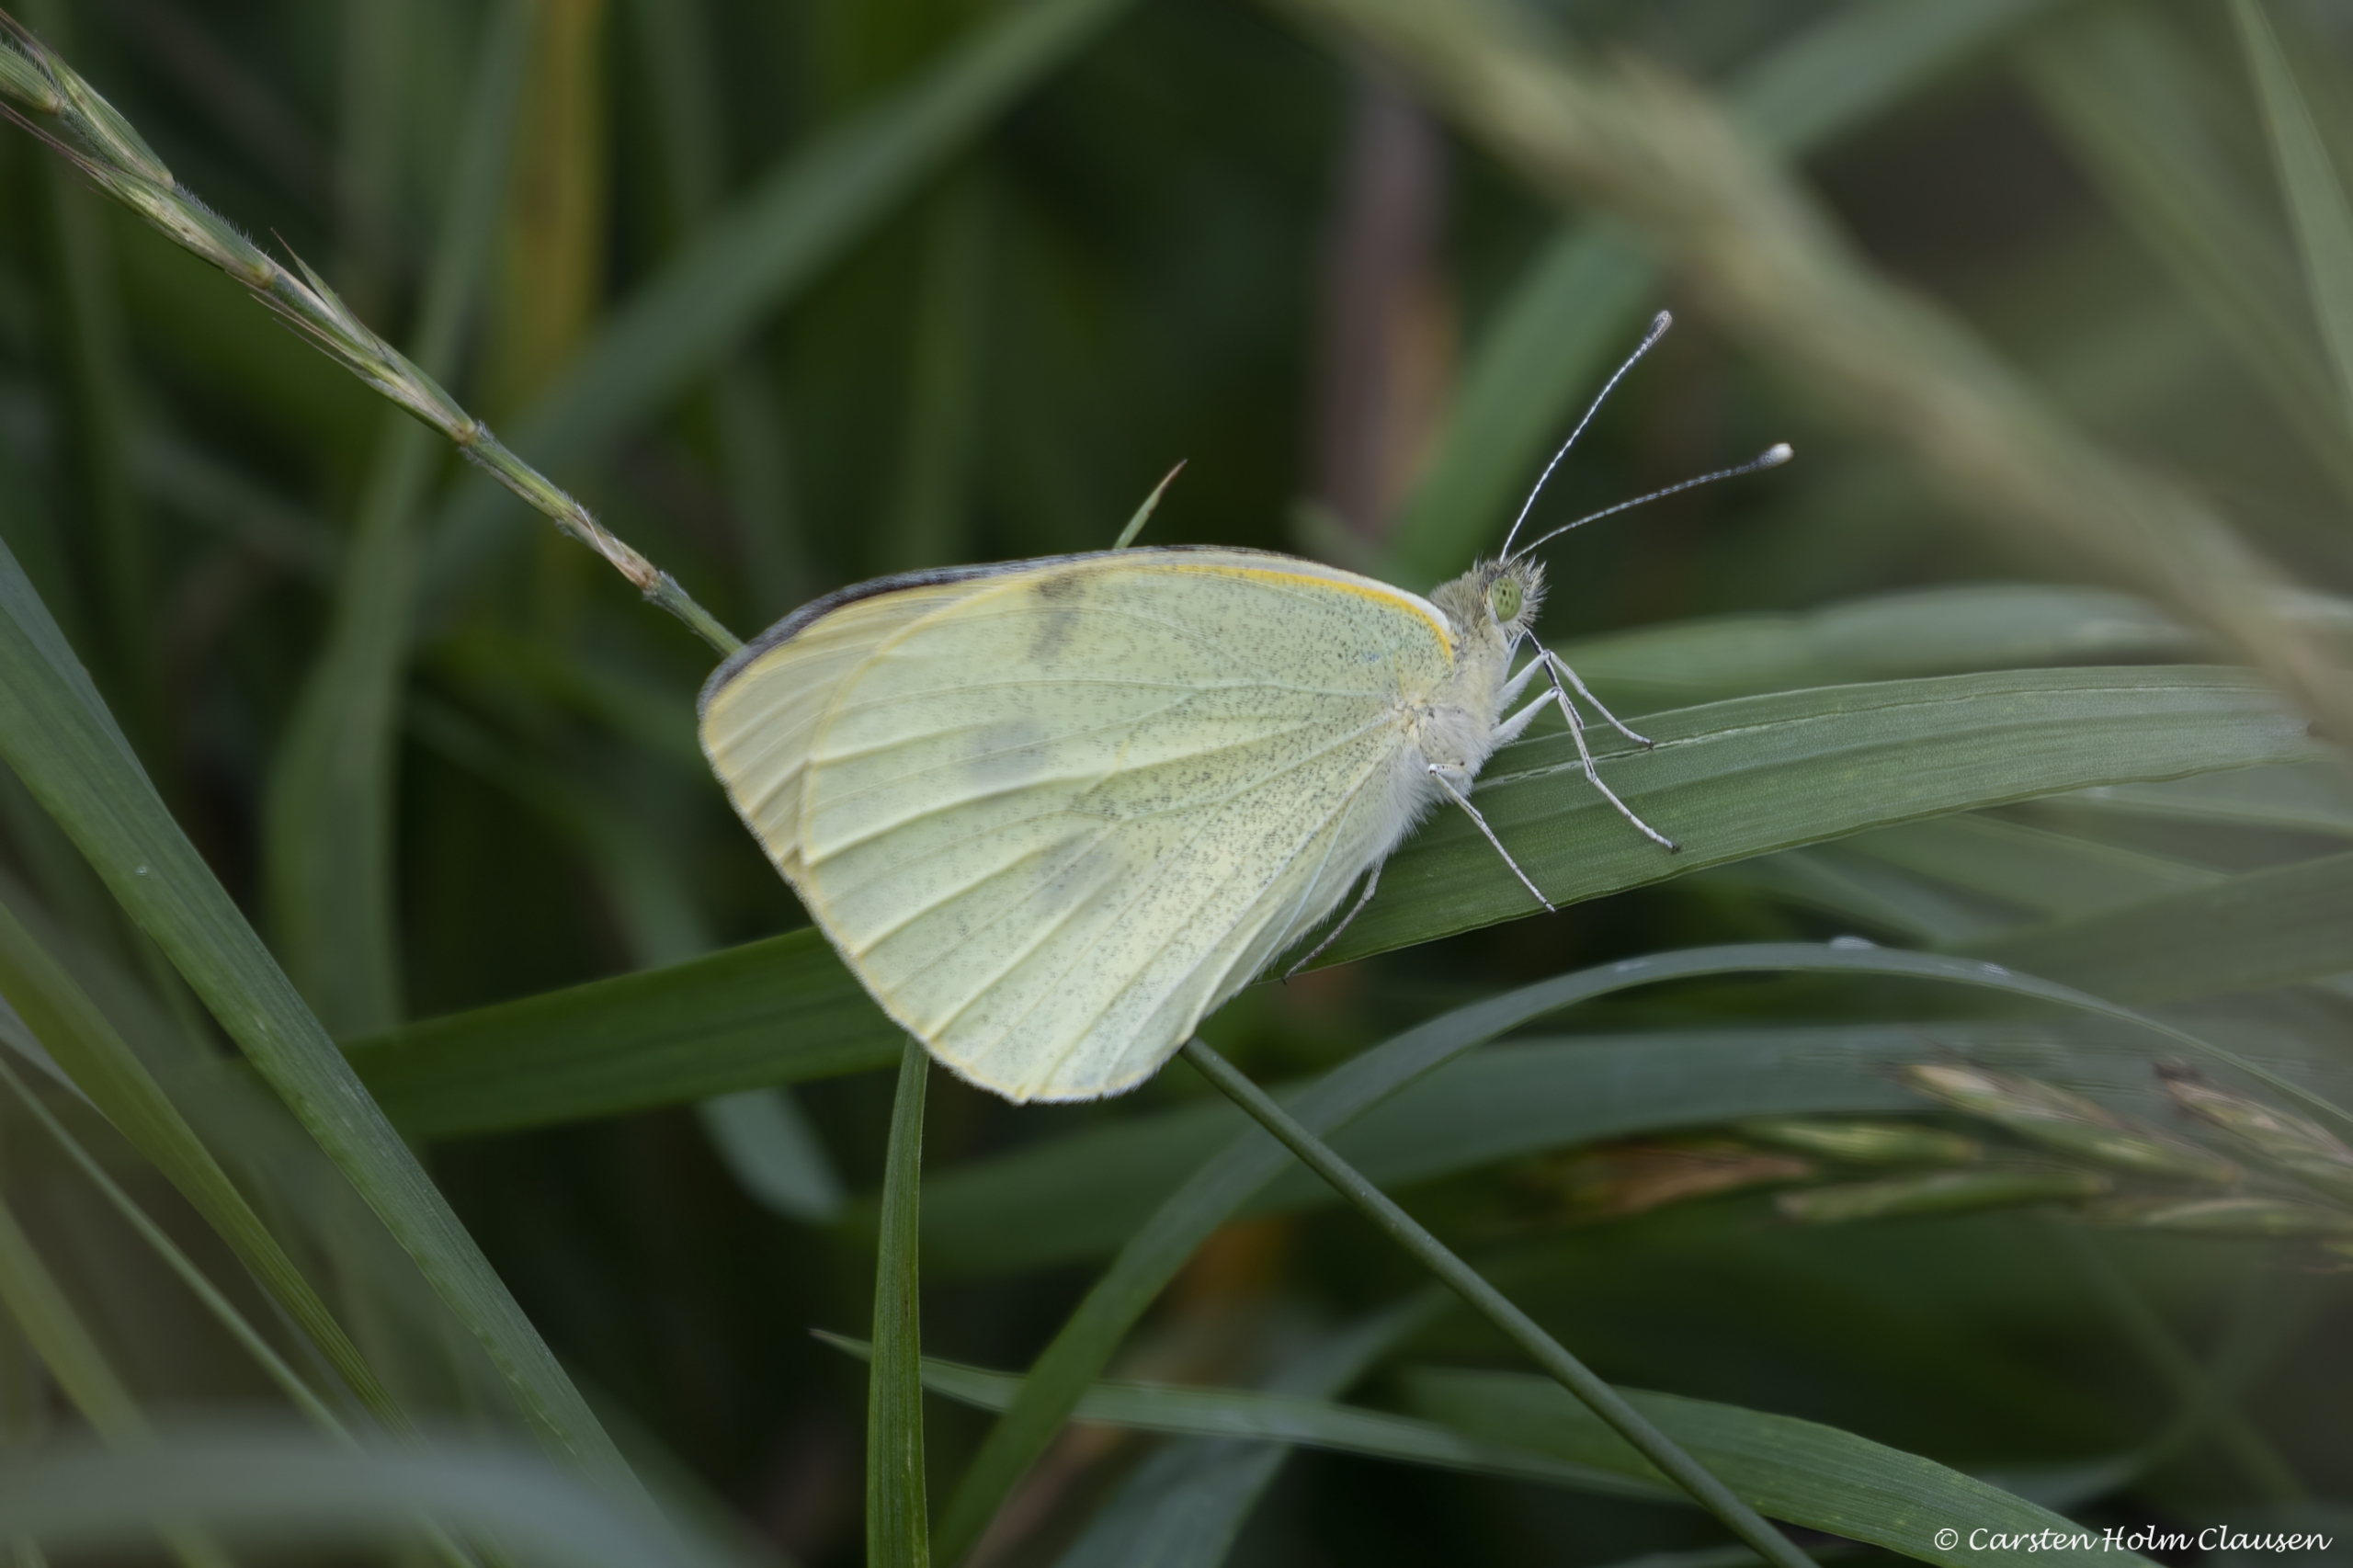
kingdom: Animalia
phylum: Arthropoda
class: Insecta
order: Lepidoptera
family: Pieridae
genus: Pieris
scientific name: Pieris brassicae
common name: Stor kålsommerfugl
